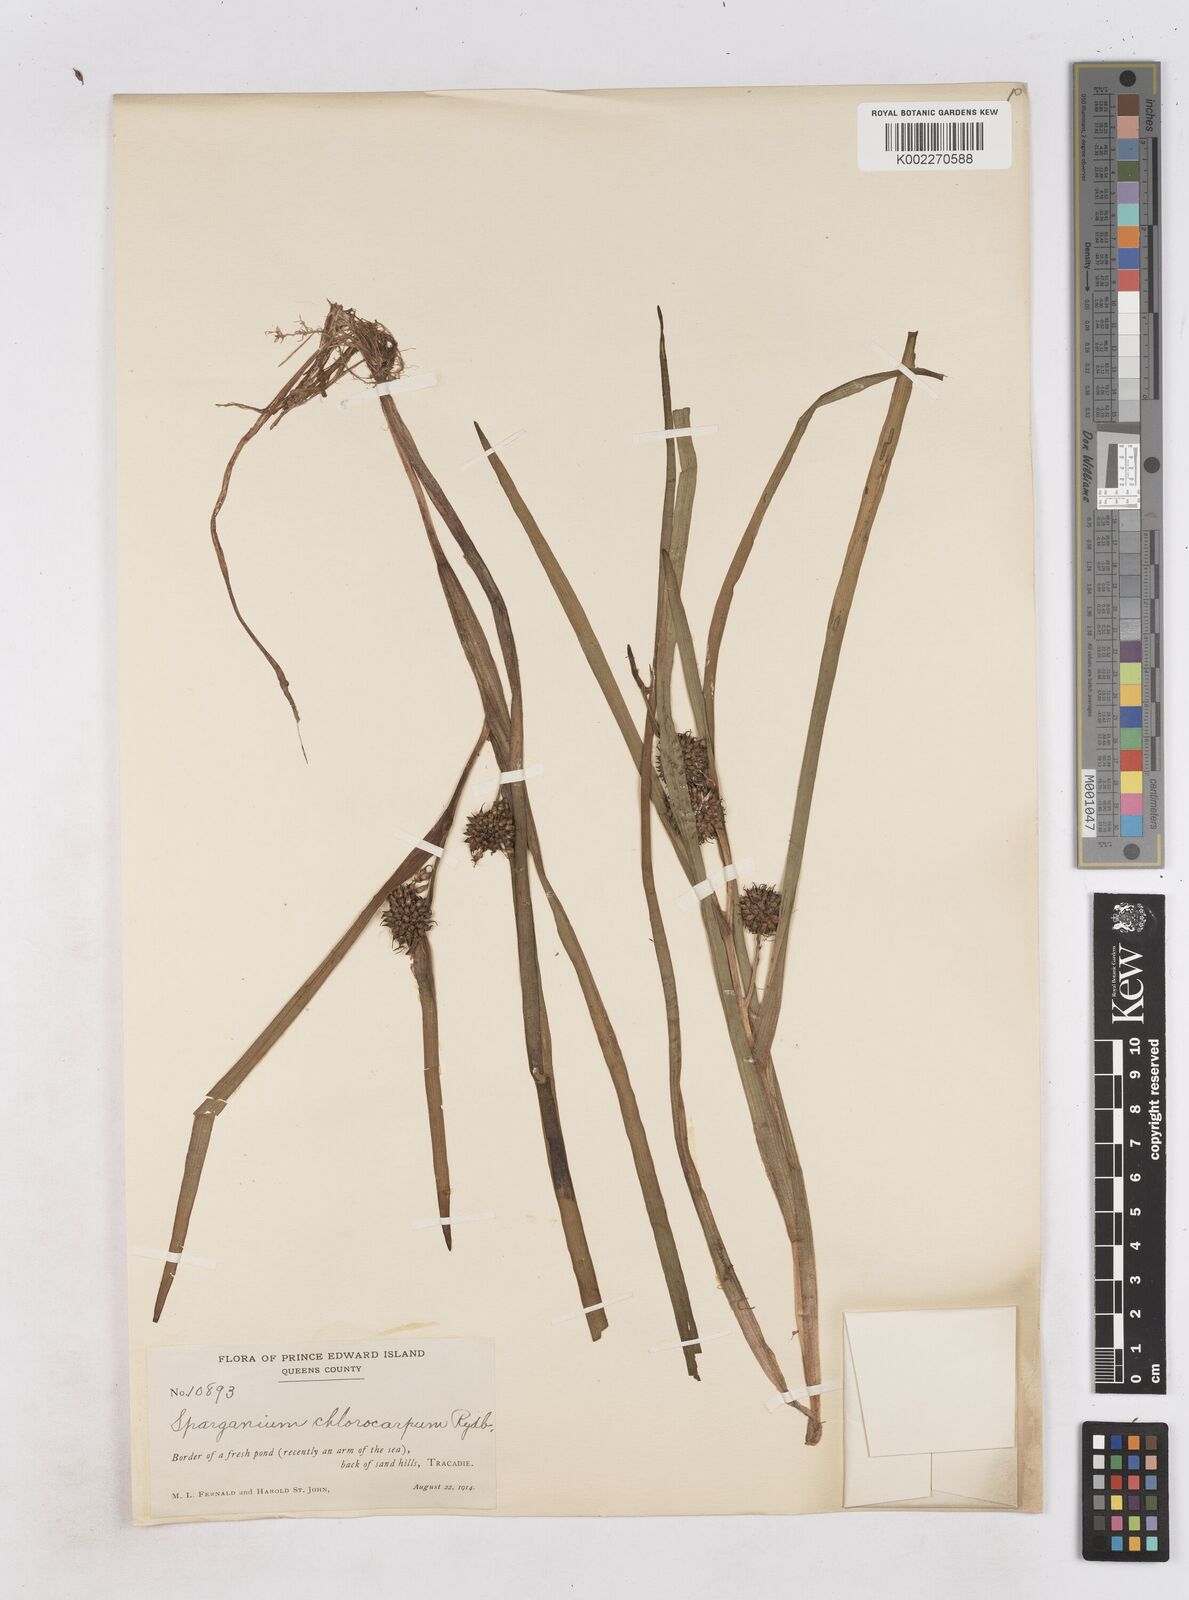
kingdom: Plantae
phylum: Tracheophyta
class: Liliopsida
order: Poales
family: Typhaceae
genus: Sparganium
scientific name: Sparganium emersum
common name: Unbranched bur-reed
